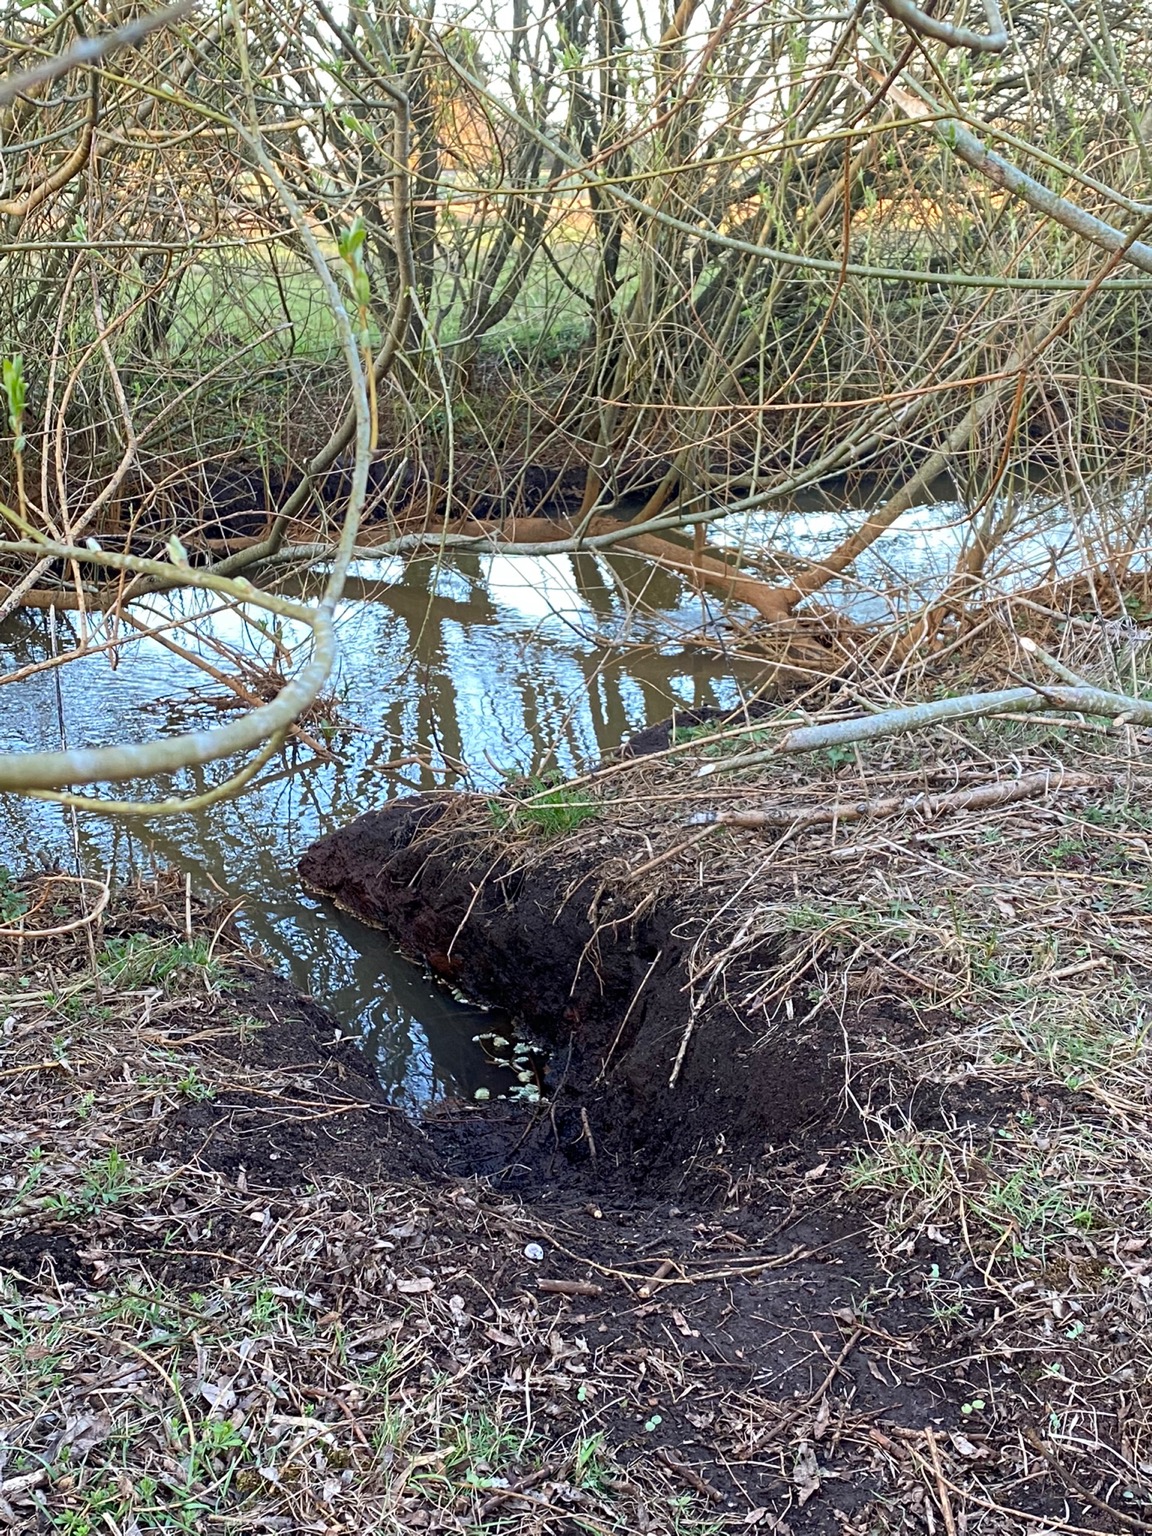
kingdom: Animalia
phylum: Chordata
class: Mammalia
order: Rodentia
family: Castoridae
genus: Castor
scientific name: Castor fiber
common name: Bæver
